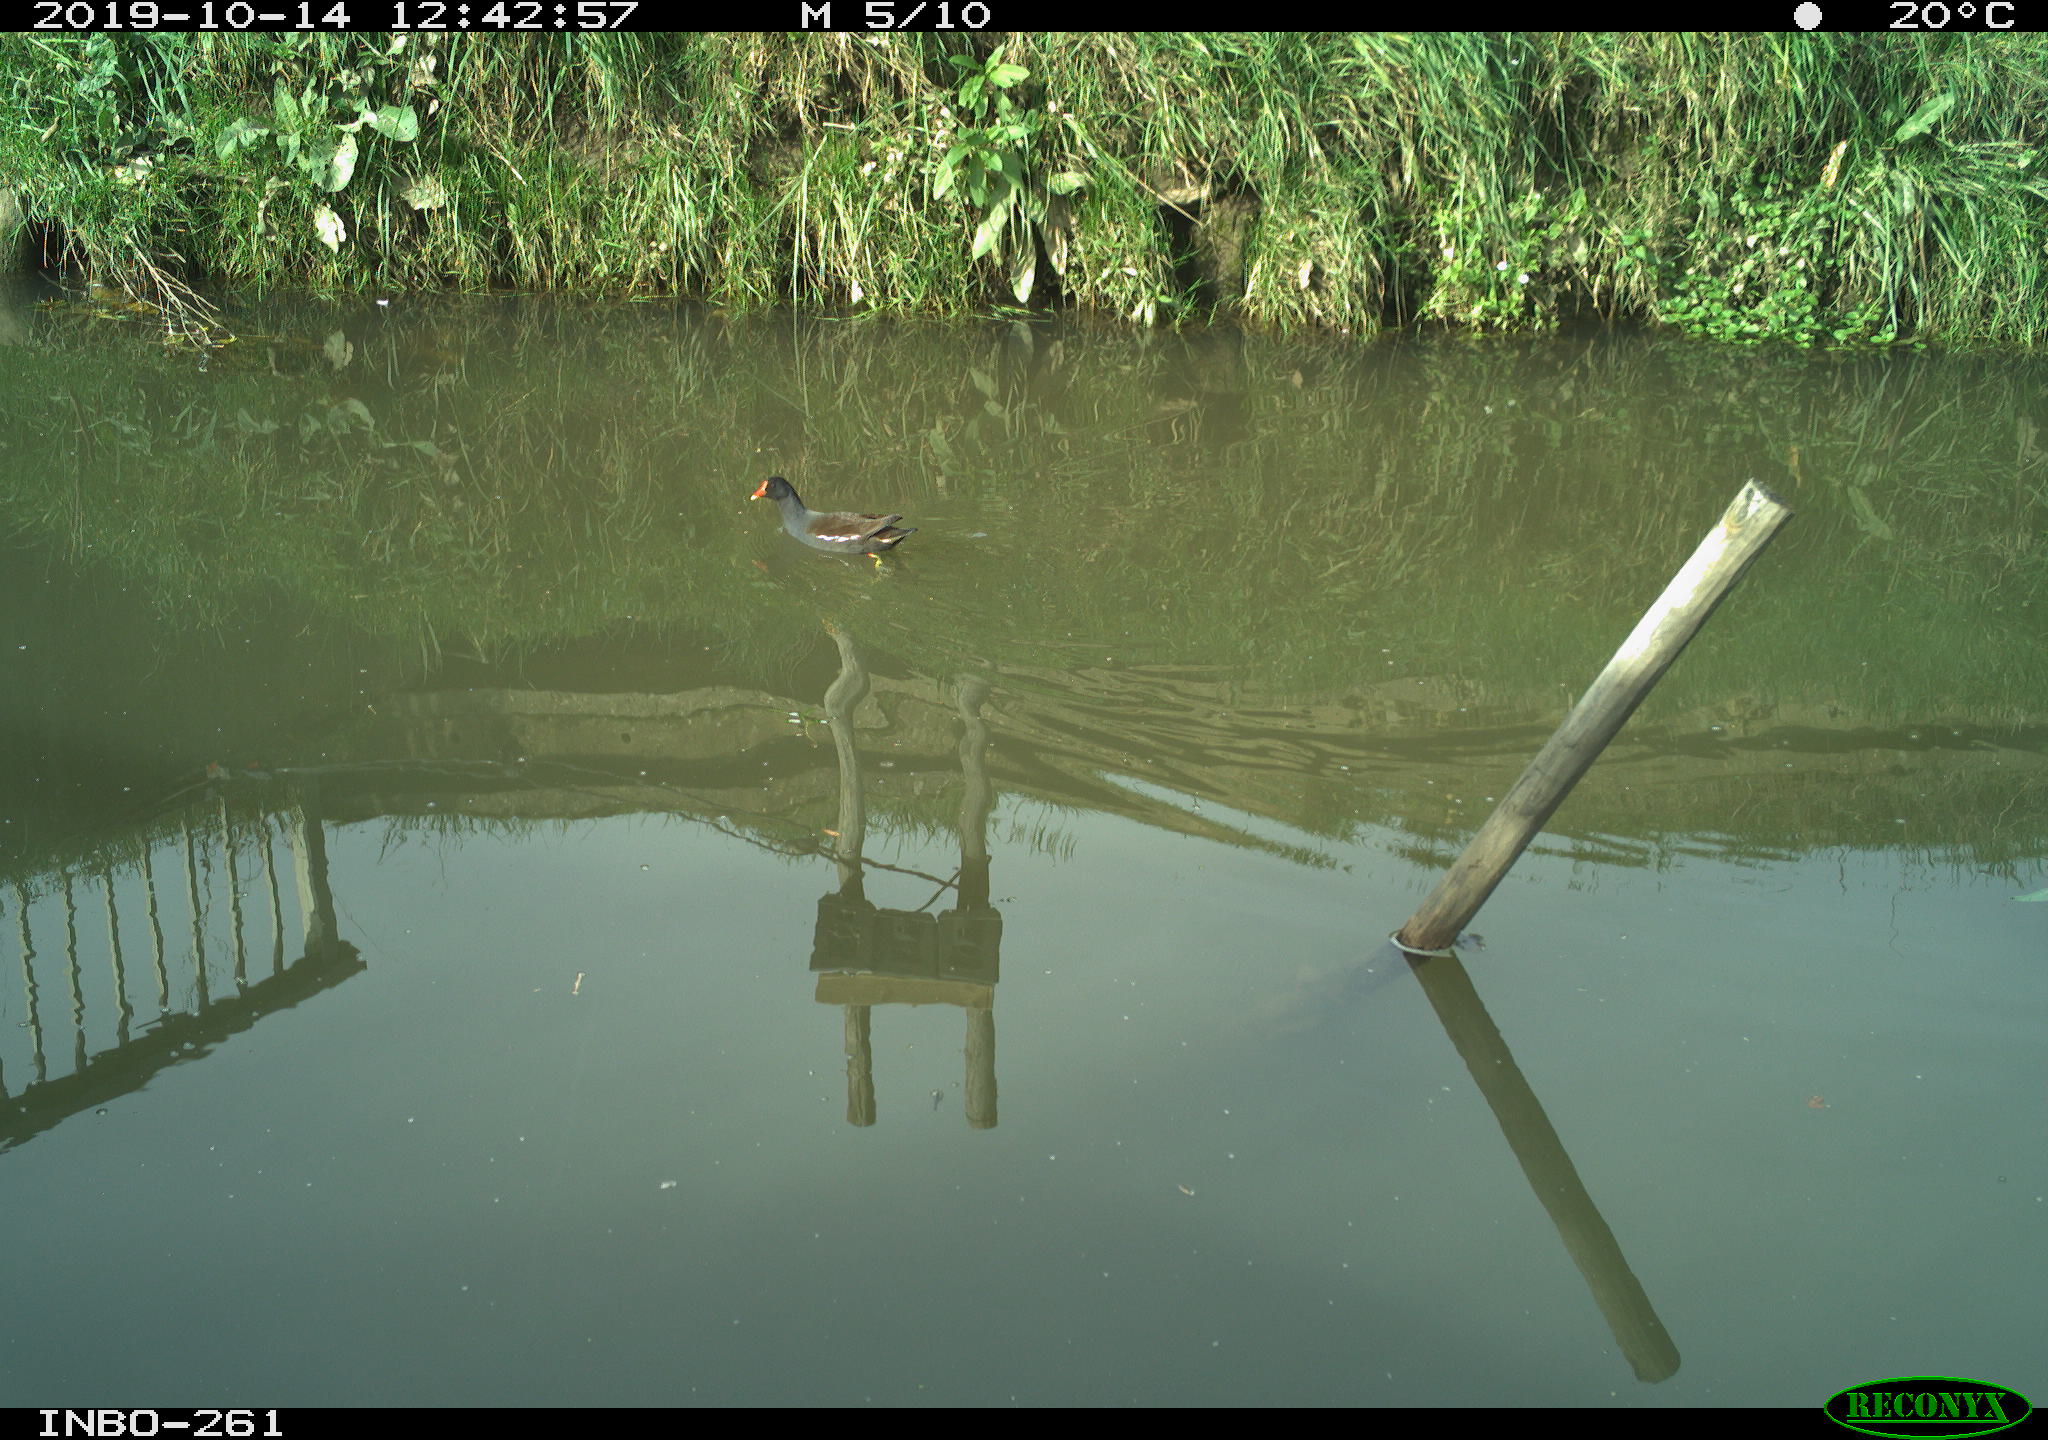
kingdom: Animalia
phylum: Chordata
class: Aves
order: Gruiformes
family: Rallidae
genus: Gallinula
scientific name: Gallinula chloropus
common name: Common moorhen
